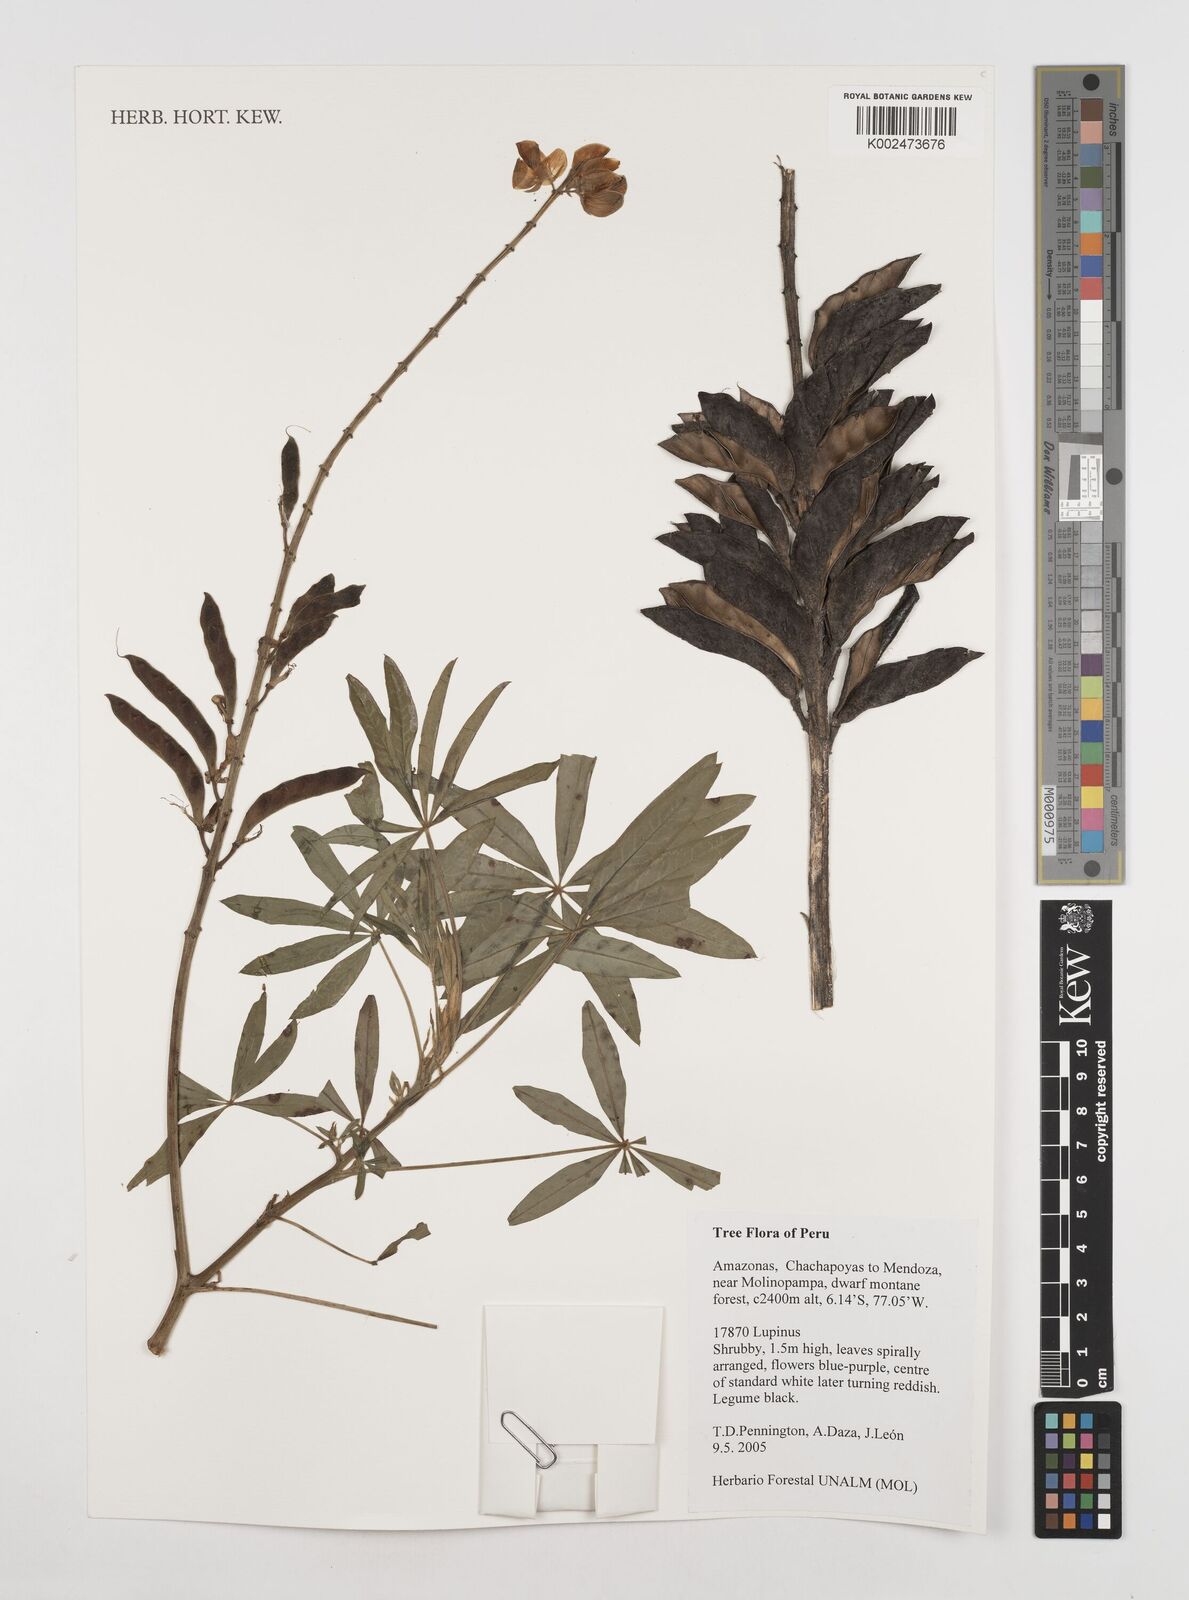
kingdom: Plantae
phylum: Tracheophyta
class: Magnoliopsida
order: Fabales
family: Fabaceae
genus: Lupinus
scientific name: Lupinus
